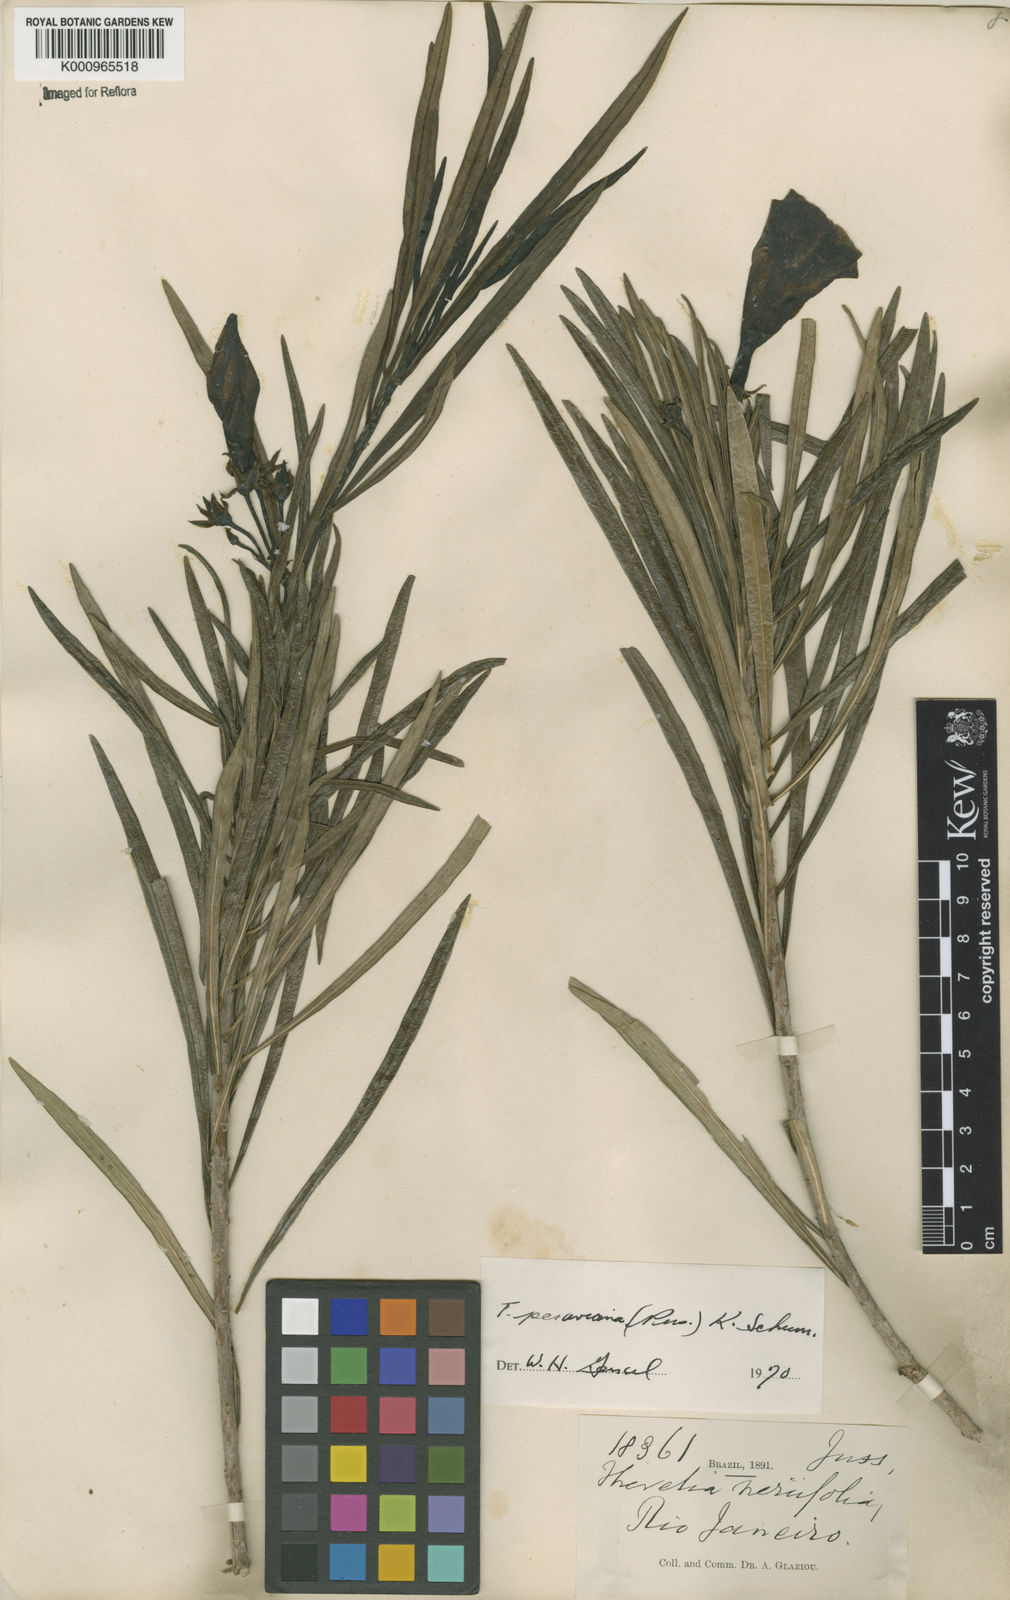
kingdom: Plantae
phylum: Tracheophyta
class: Magnoliopsida
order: Gentianales
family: Apocynaceae
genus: Cascabela
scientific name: Cascabela thevetia
